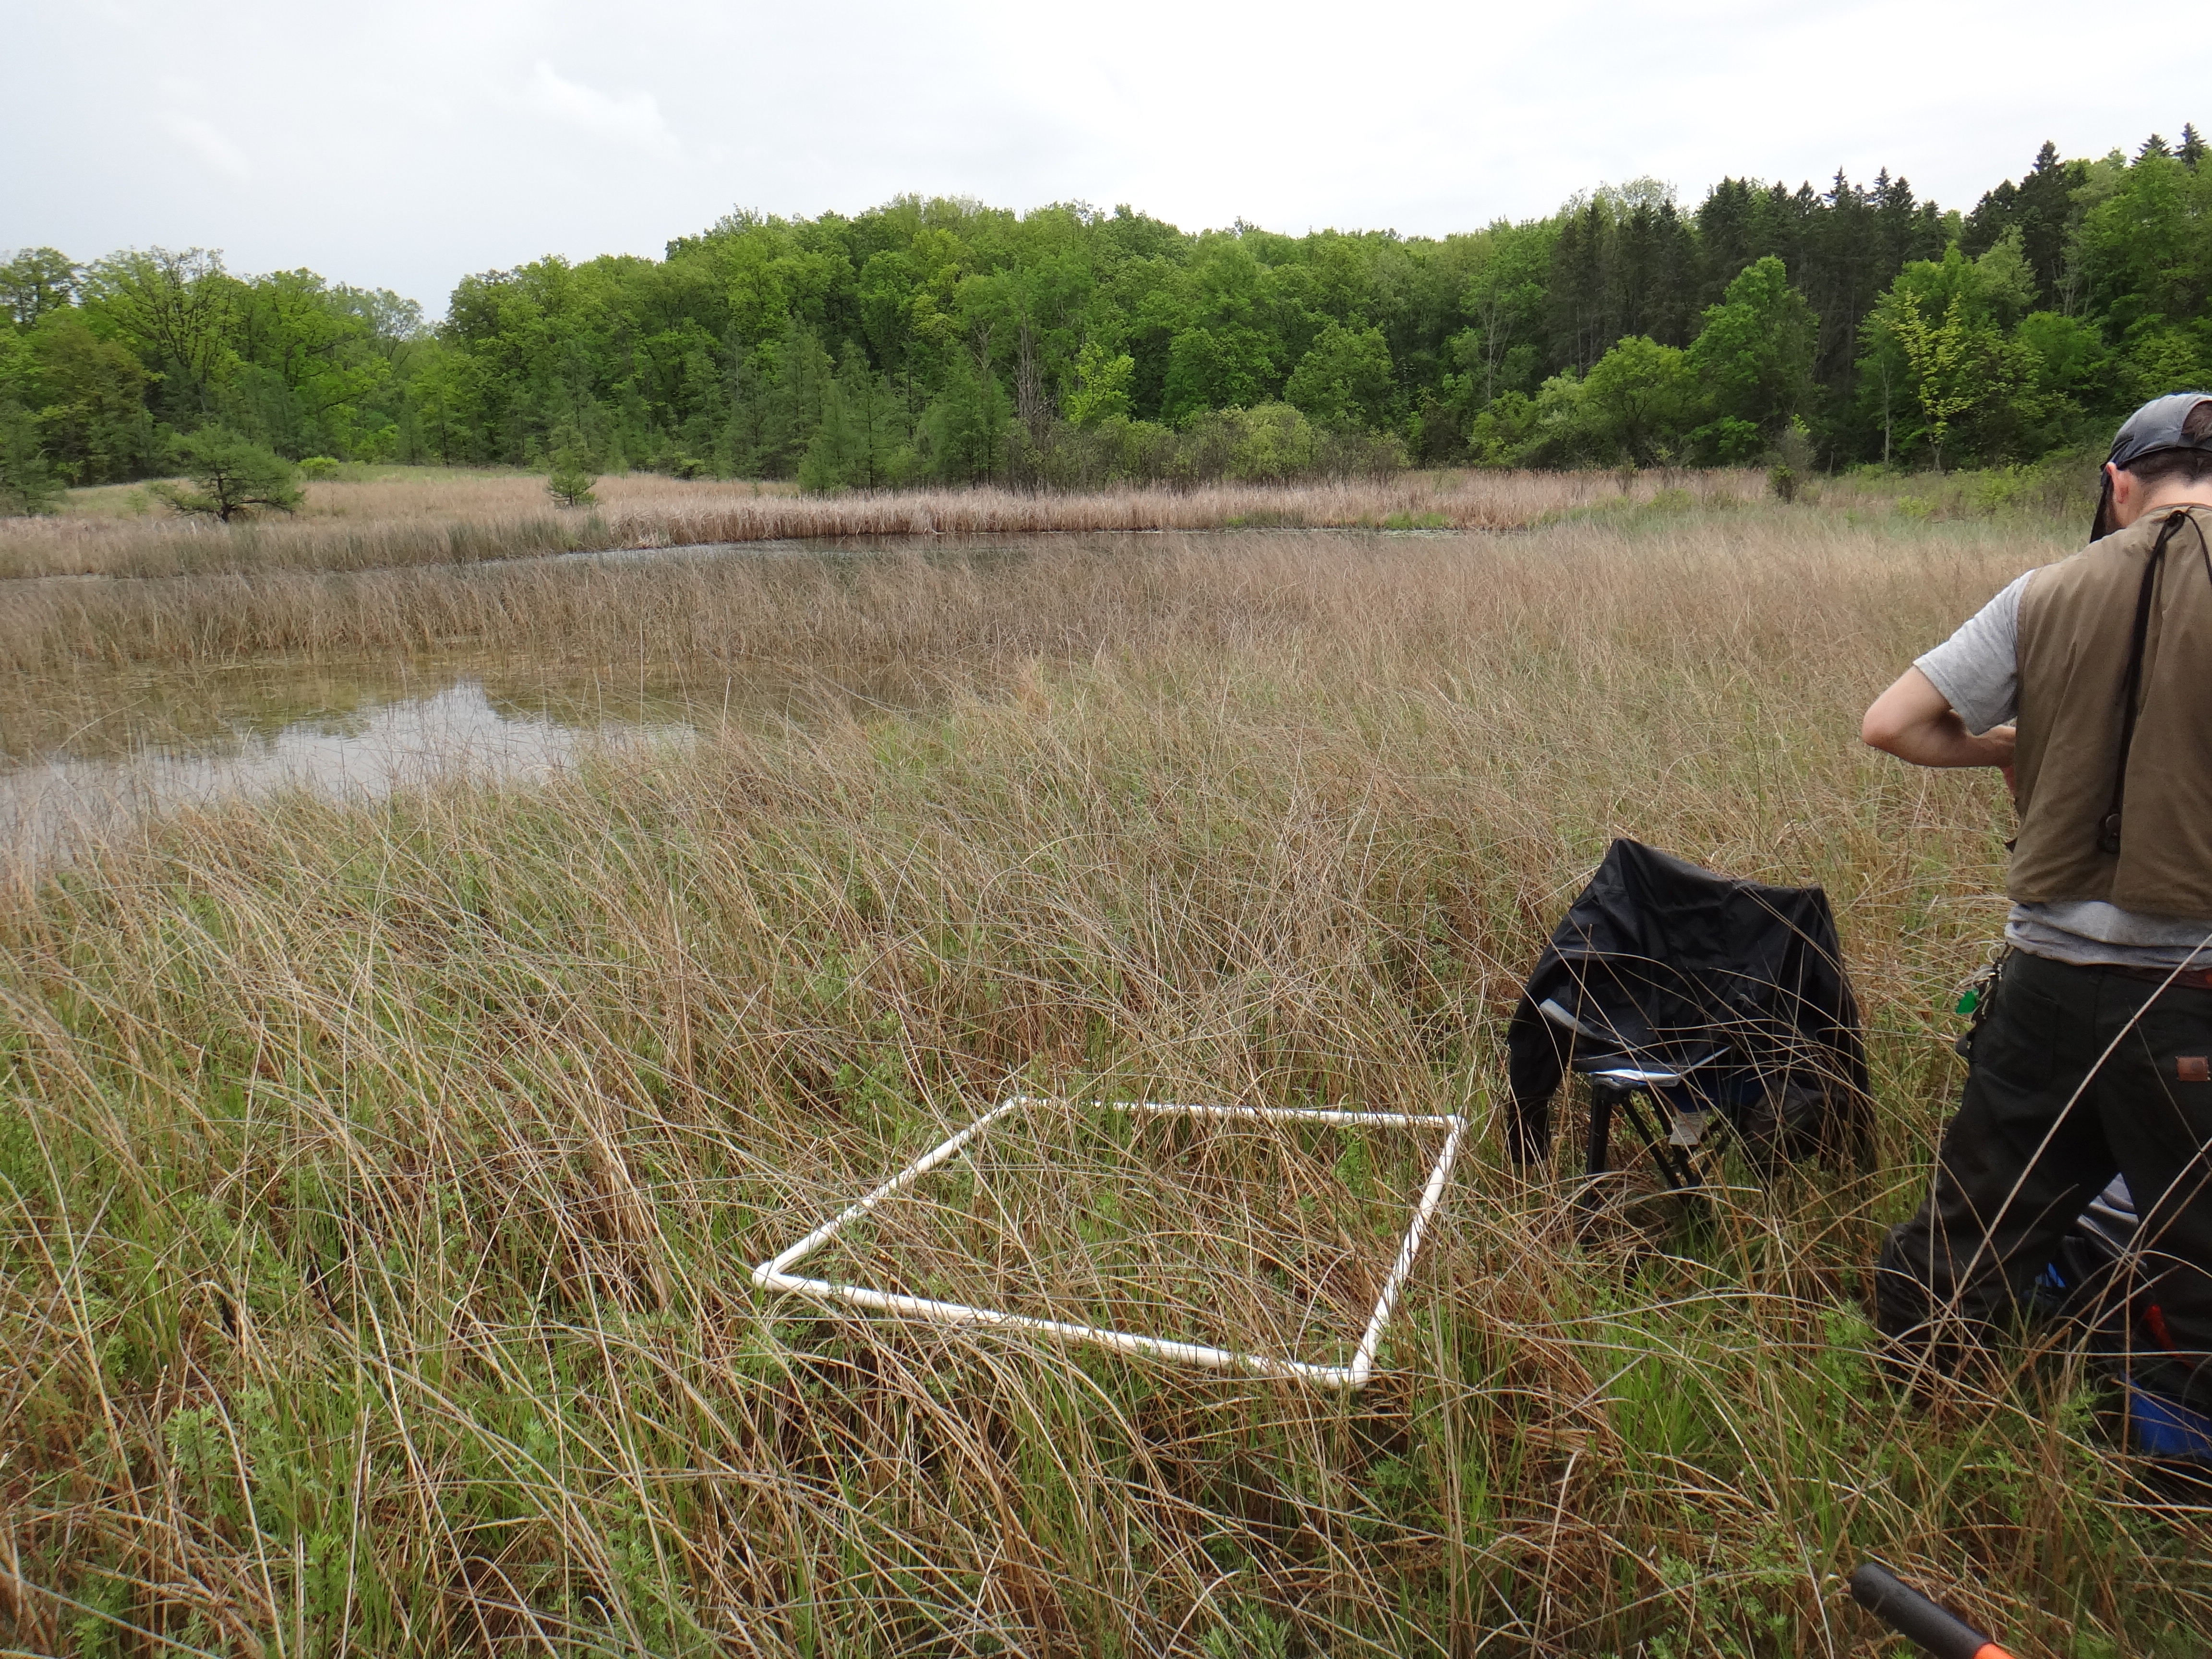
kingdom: Plantae
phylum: Tracheophyta
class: Magnoliopsida
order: Asterales
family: Asteraceae
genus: Solidago
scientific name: Solidago ohioensis
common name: Ohio goldenrod
